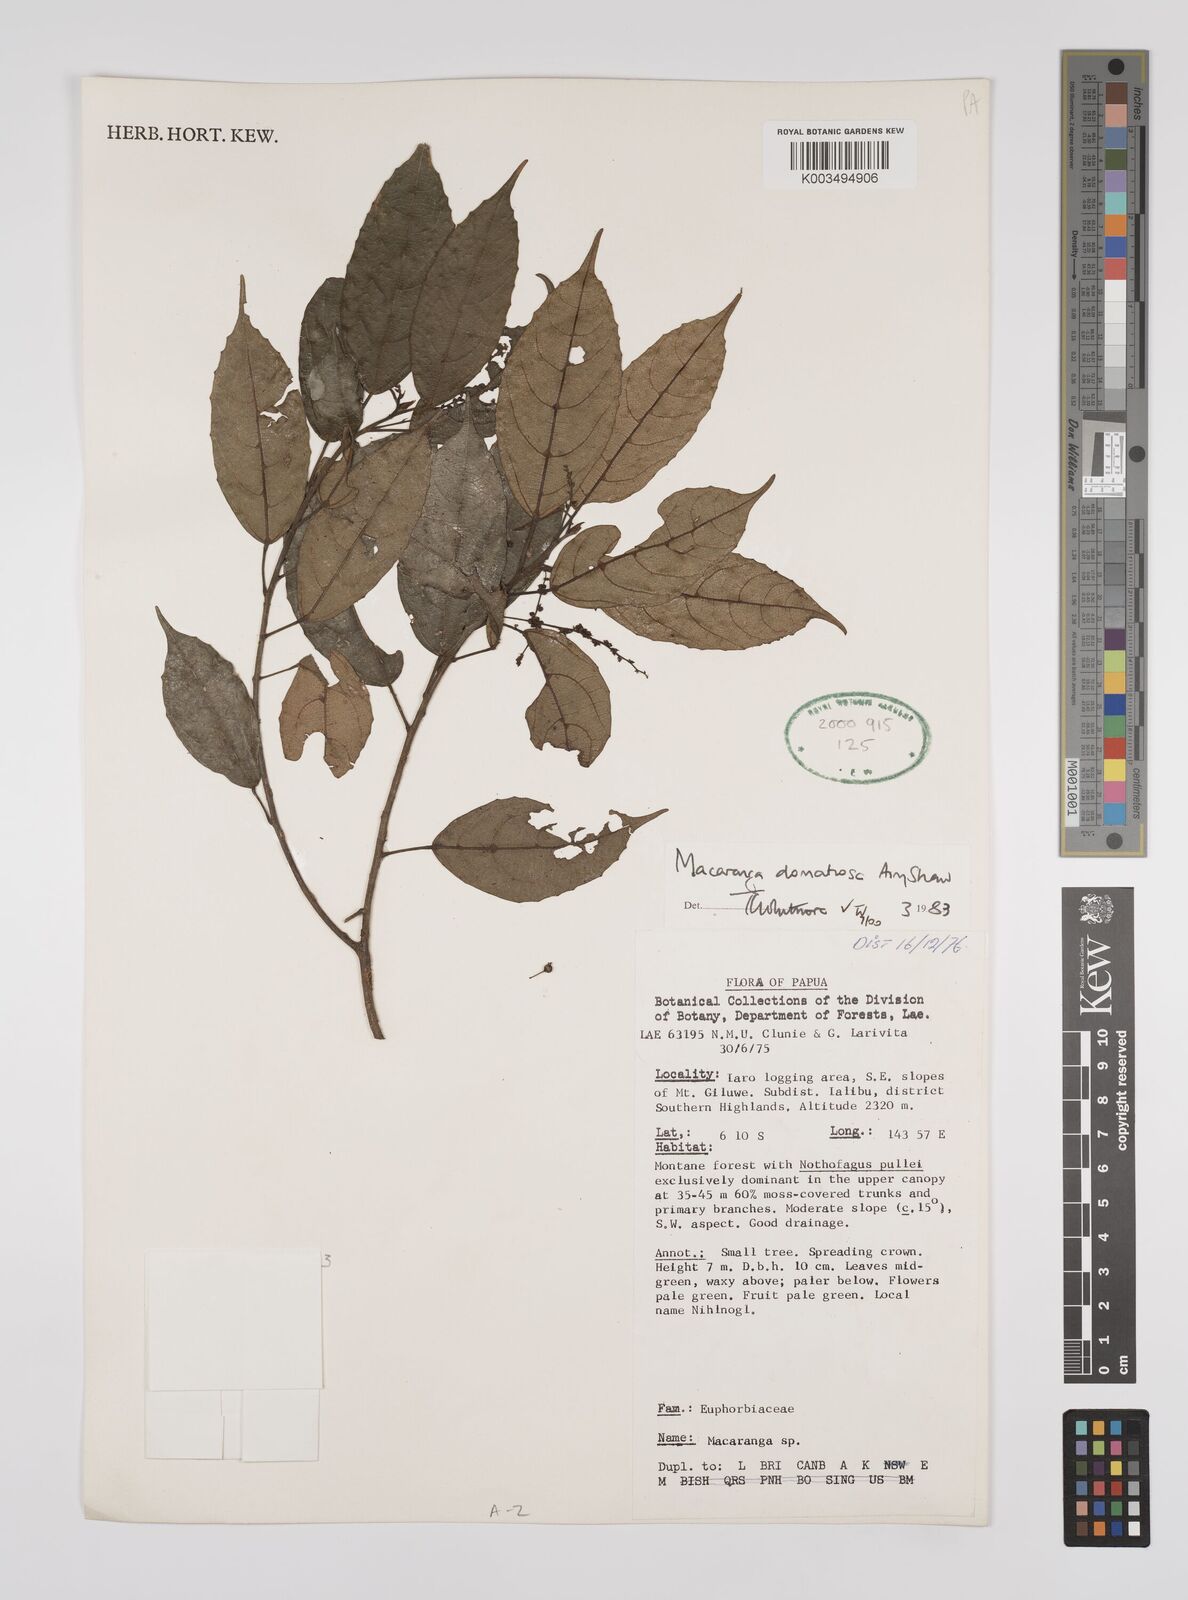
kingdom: Plantae
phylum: Tracheophyta
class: Magnoliopsida
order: Malpighiales
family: Euphorbiaceae
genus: Macaranga
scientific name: Macaranga domatiosa
